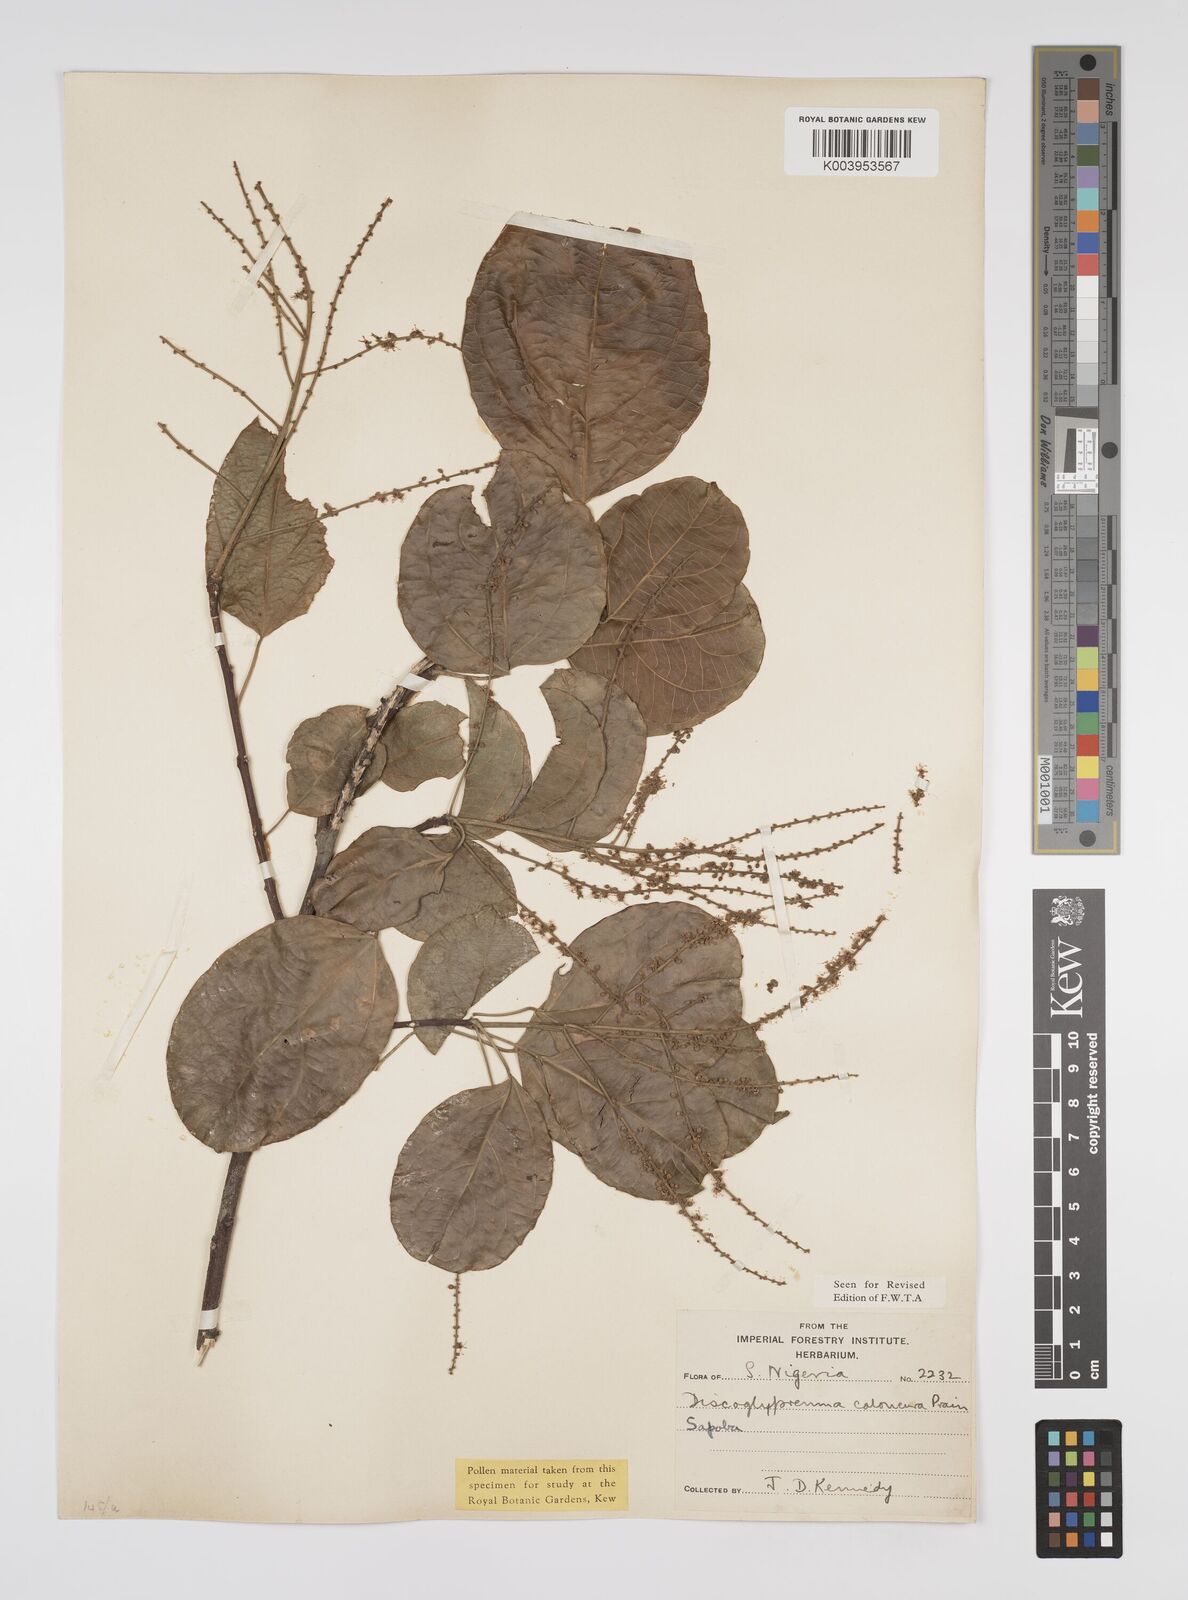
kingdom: Plantae
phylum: Tracheophyta
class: Magnoliopsida
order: Malpighiales
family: Euphorbiaceae
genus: Discoglypremna
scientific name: Discoglypremna caloneura
